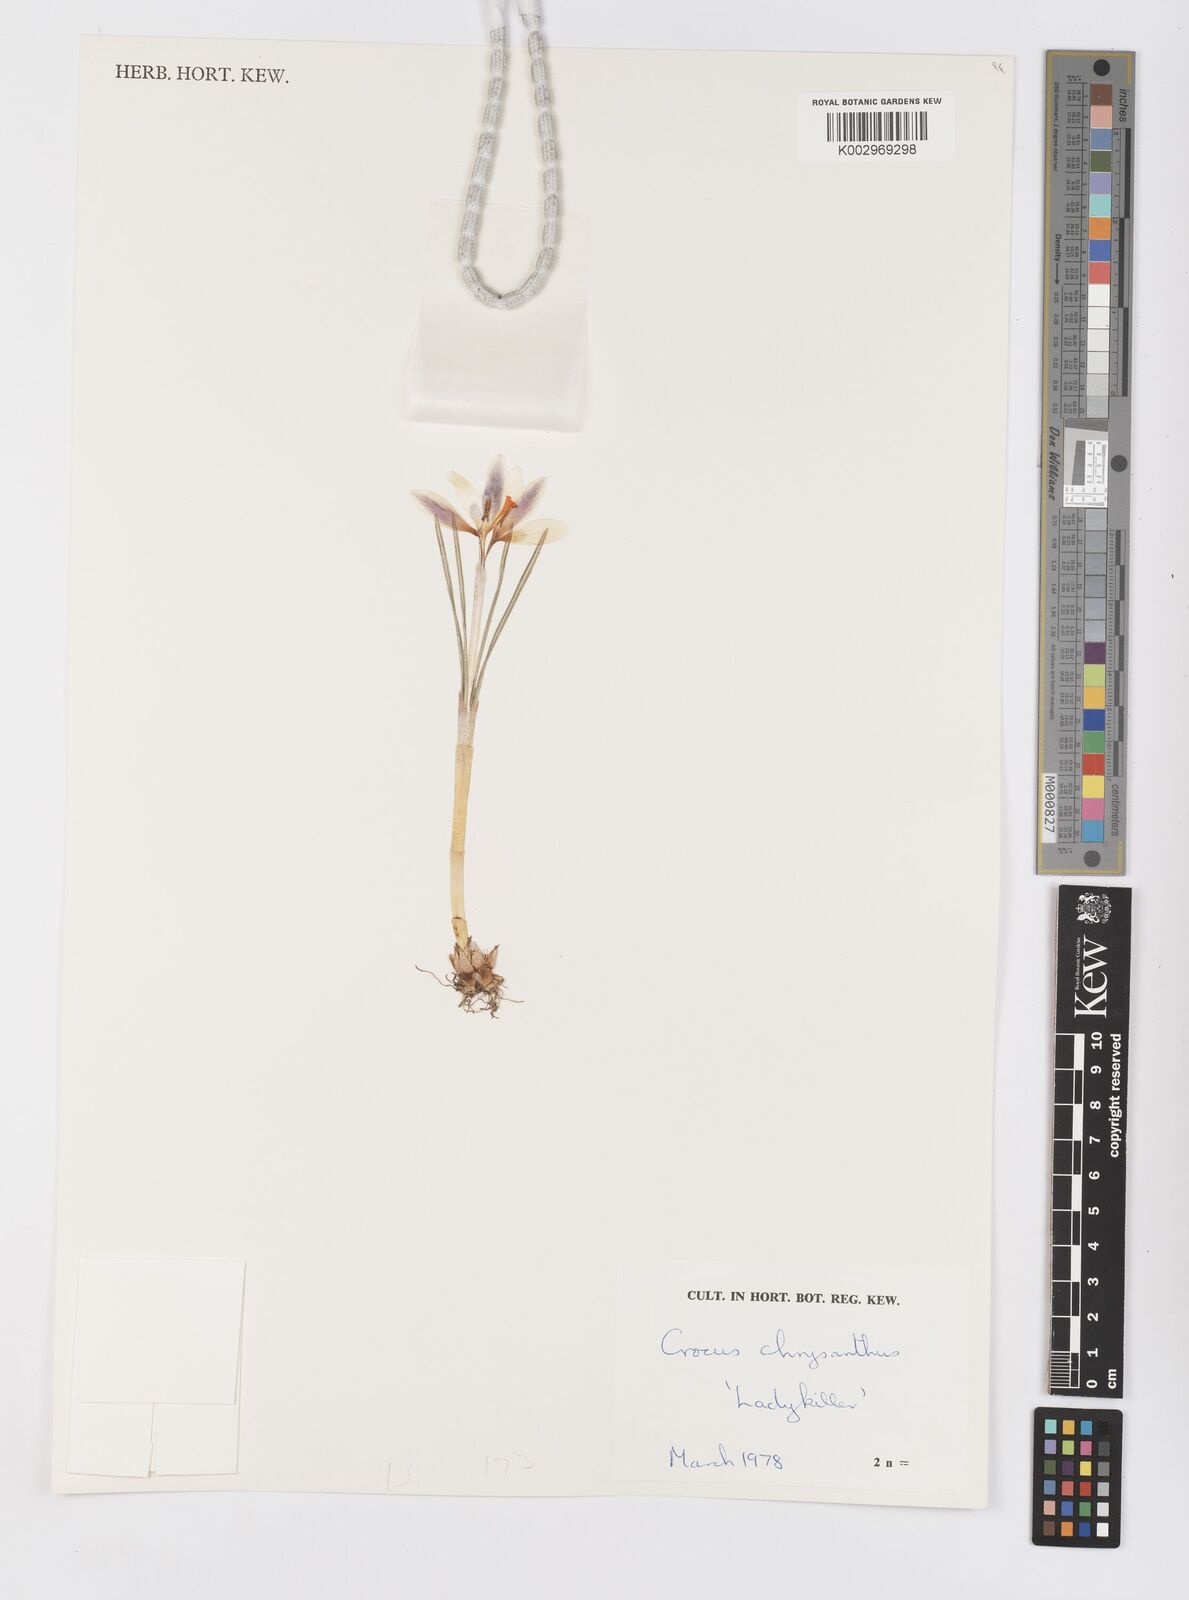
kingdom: Plantae
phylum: Tracheophyta
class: Liliopsida
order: Asparagales
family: Iridaceae
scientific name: Iridaceae
